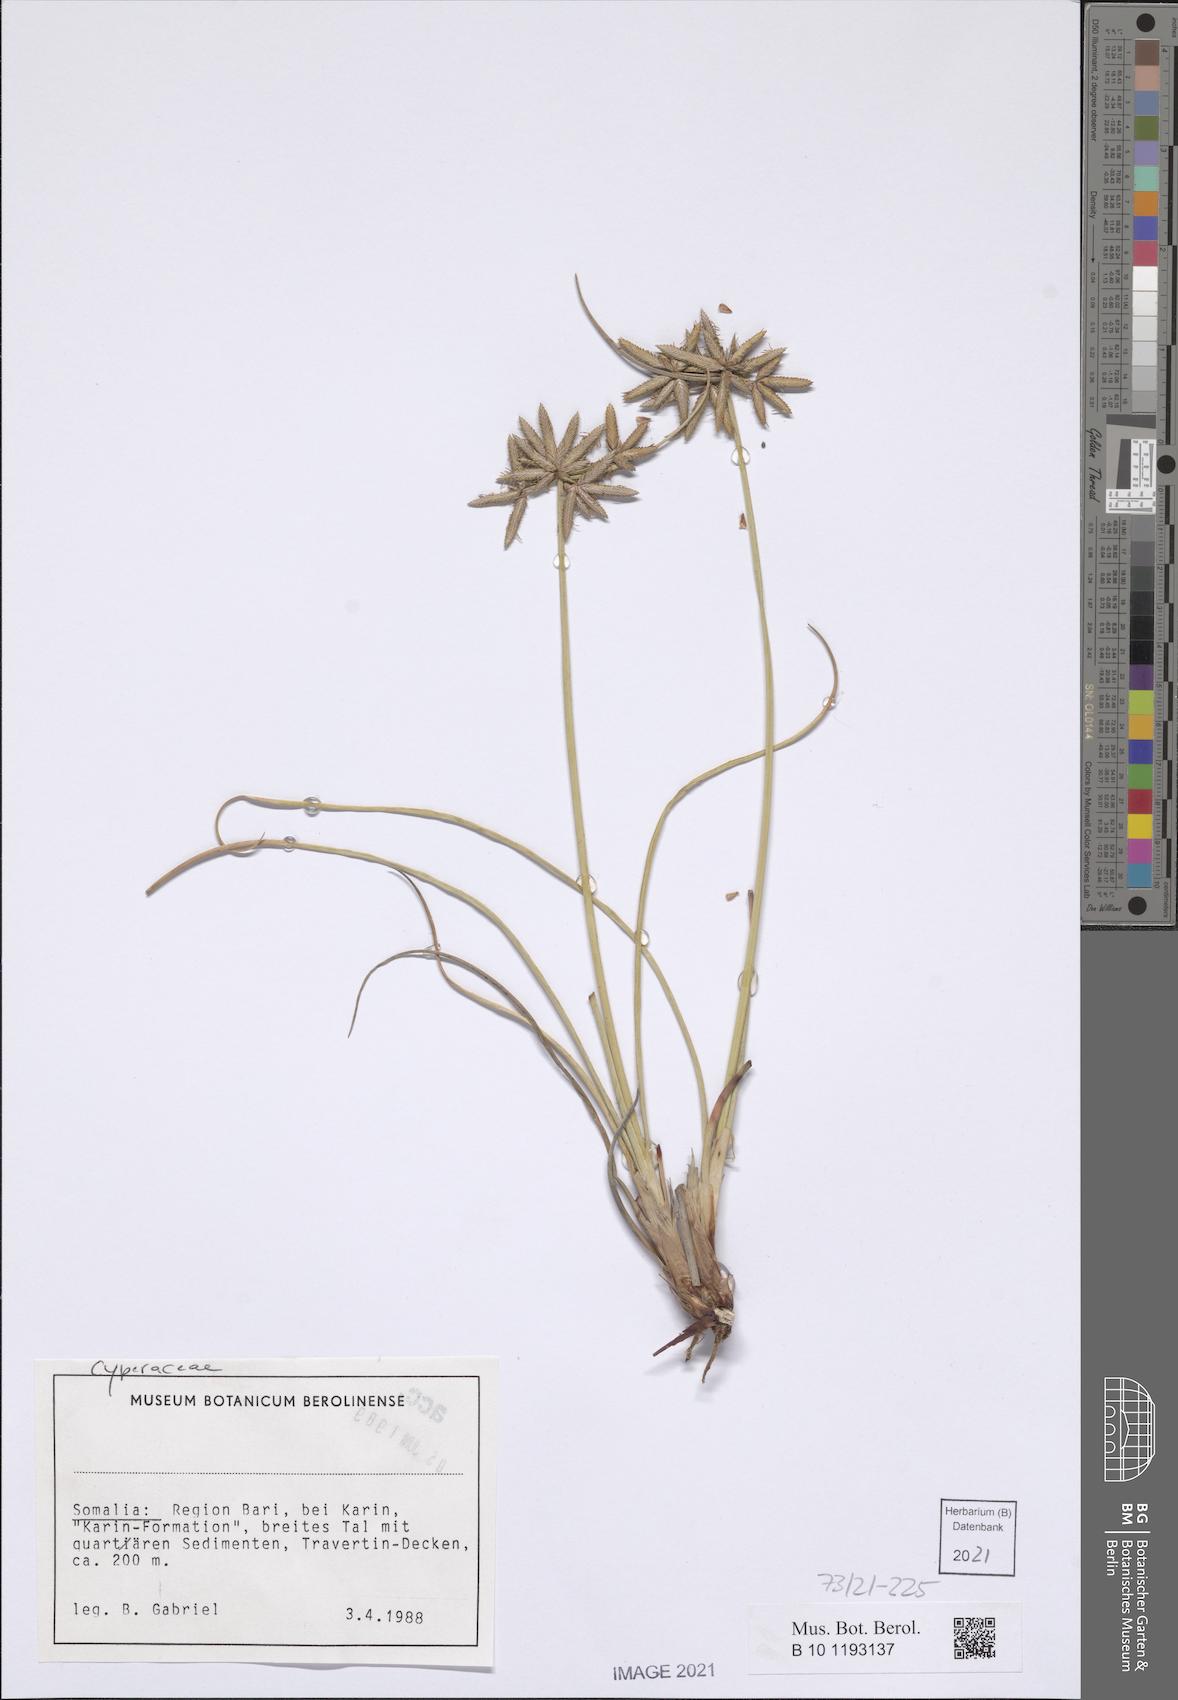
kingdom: Plantae
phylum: Tracheophyta
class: Liliopsida
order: Poales
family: Cyperaceae
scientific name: Cyperaceae
